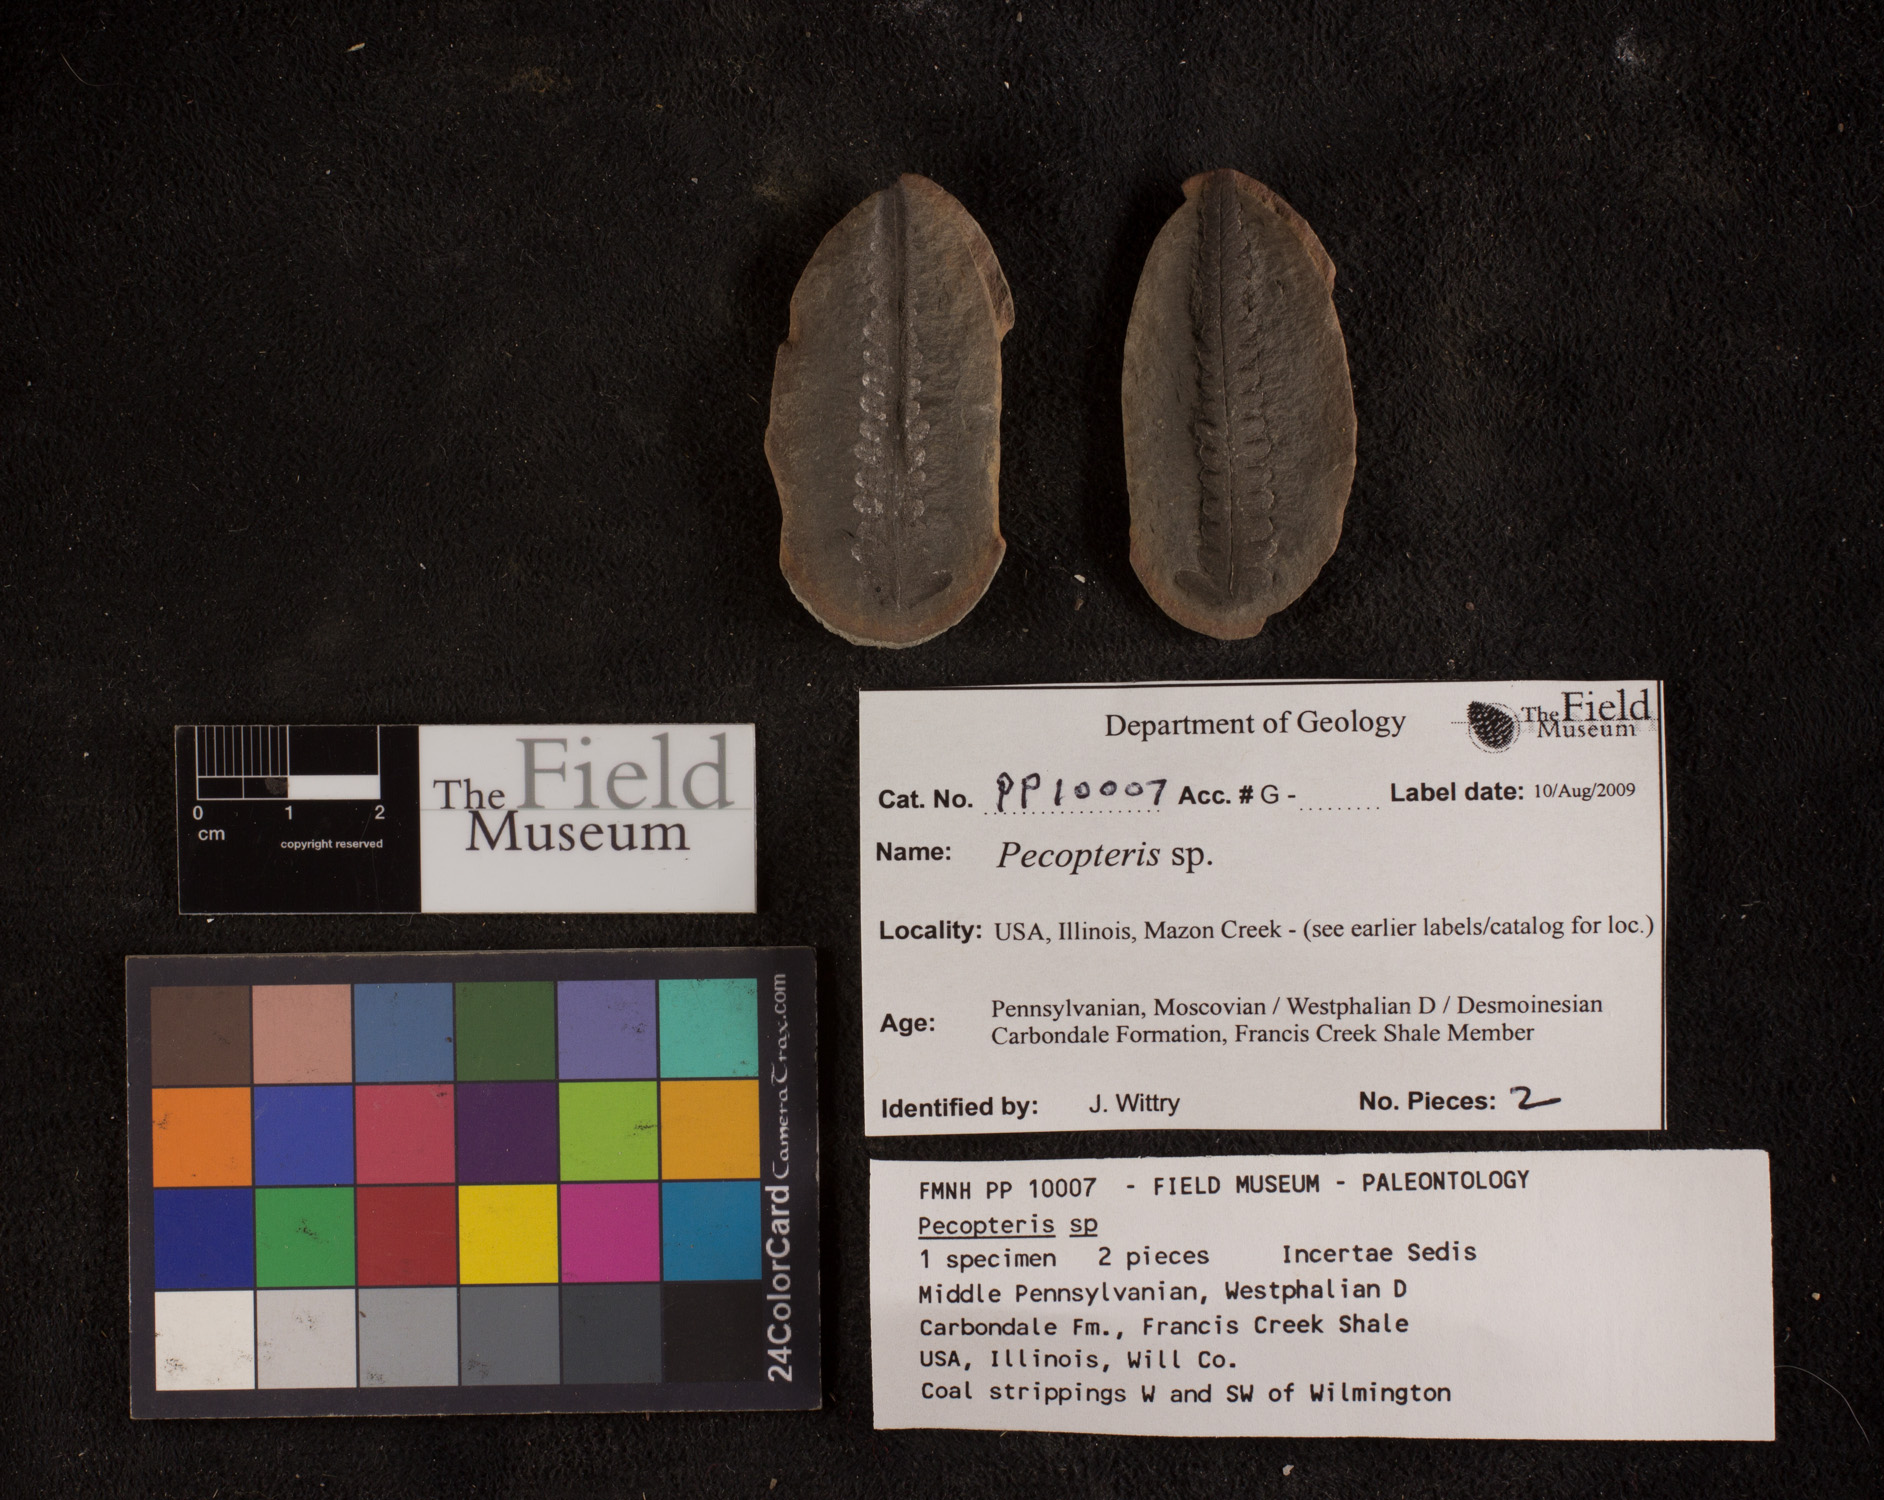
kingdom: Plantae
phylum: Tracheophyta
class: Polypodiopsida
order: Marattiales
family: Asterothecaceae
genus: Pecopteris
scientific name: Pecopteris
